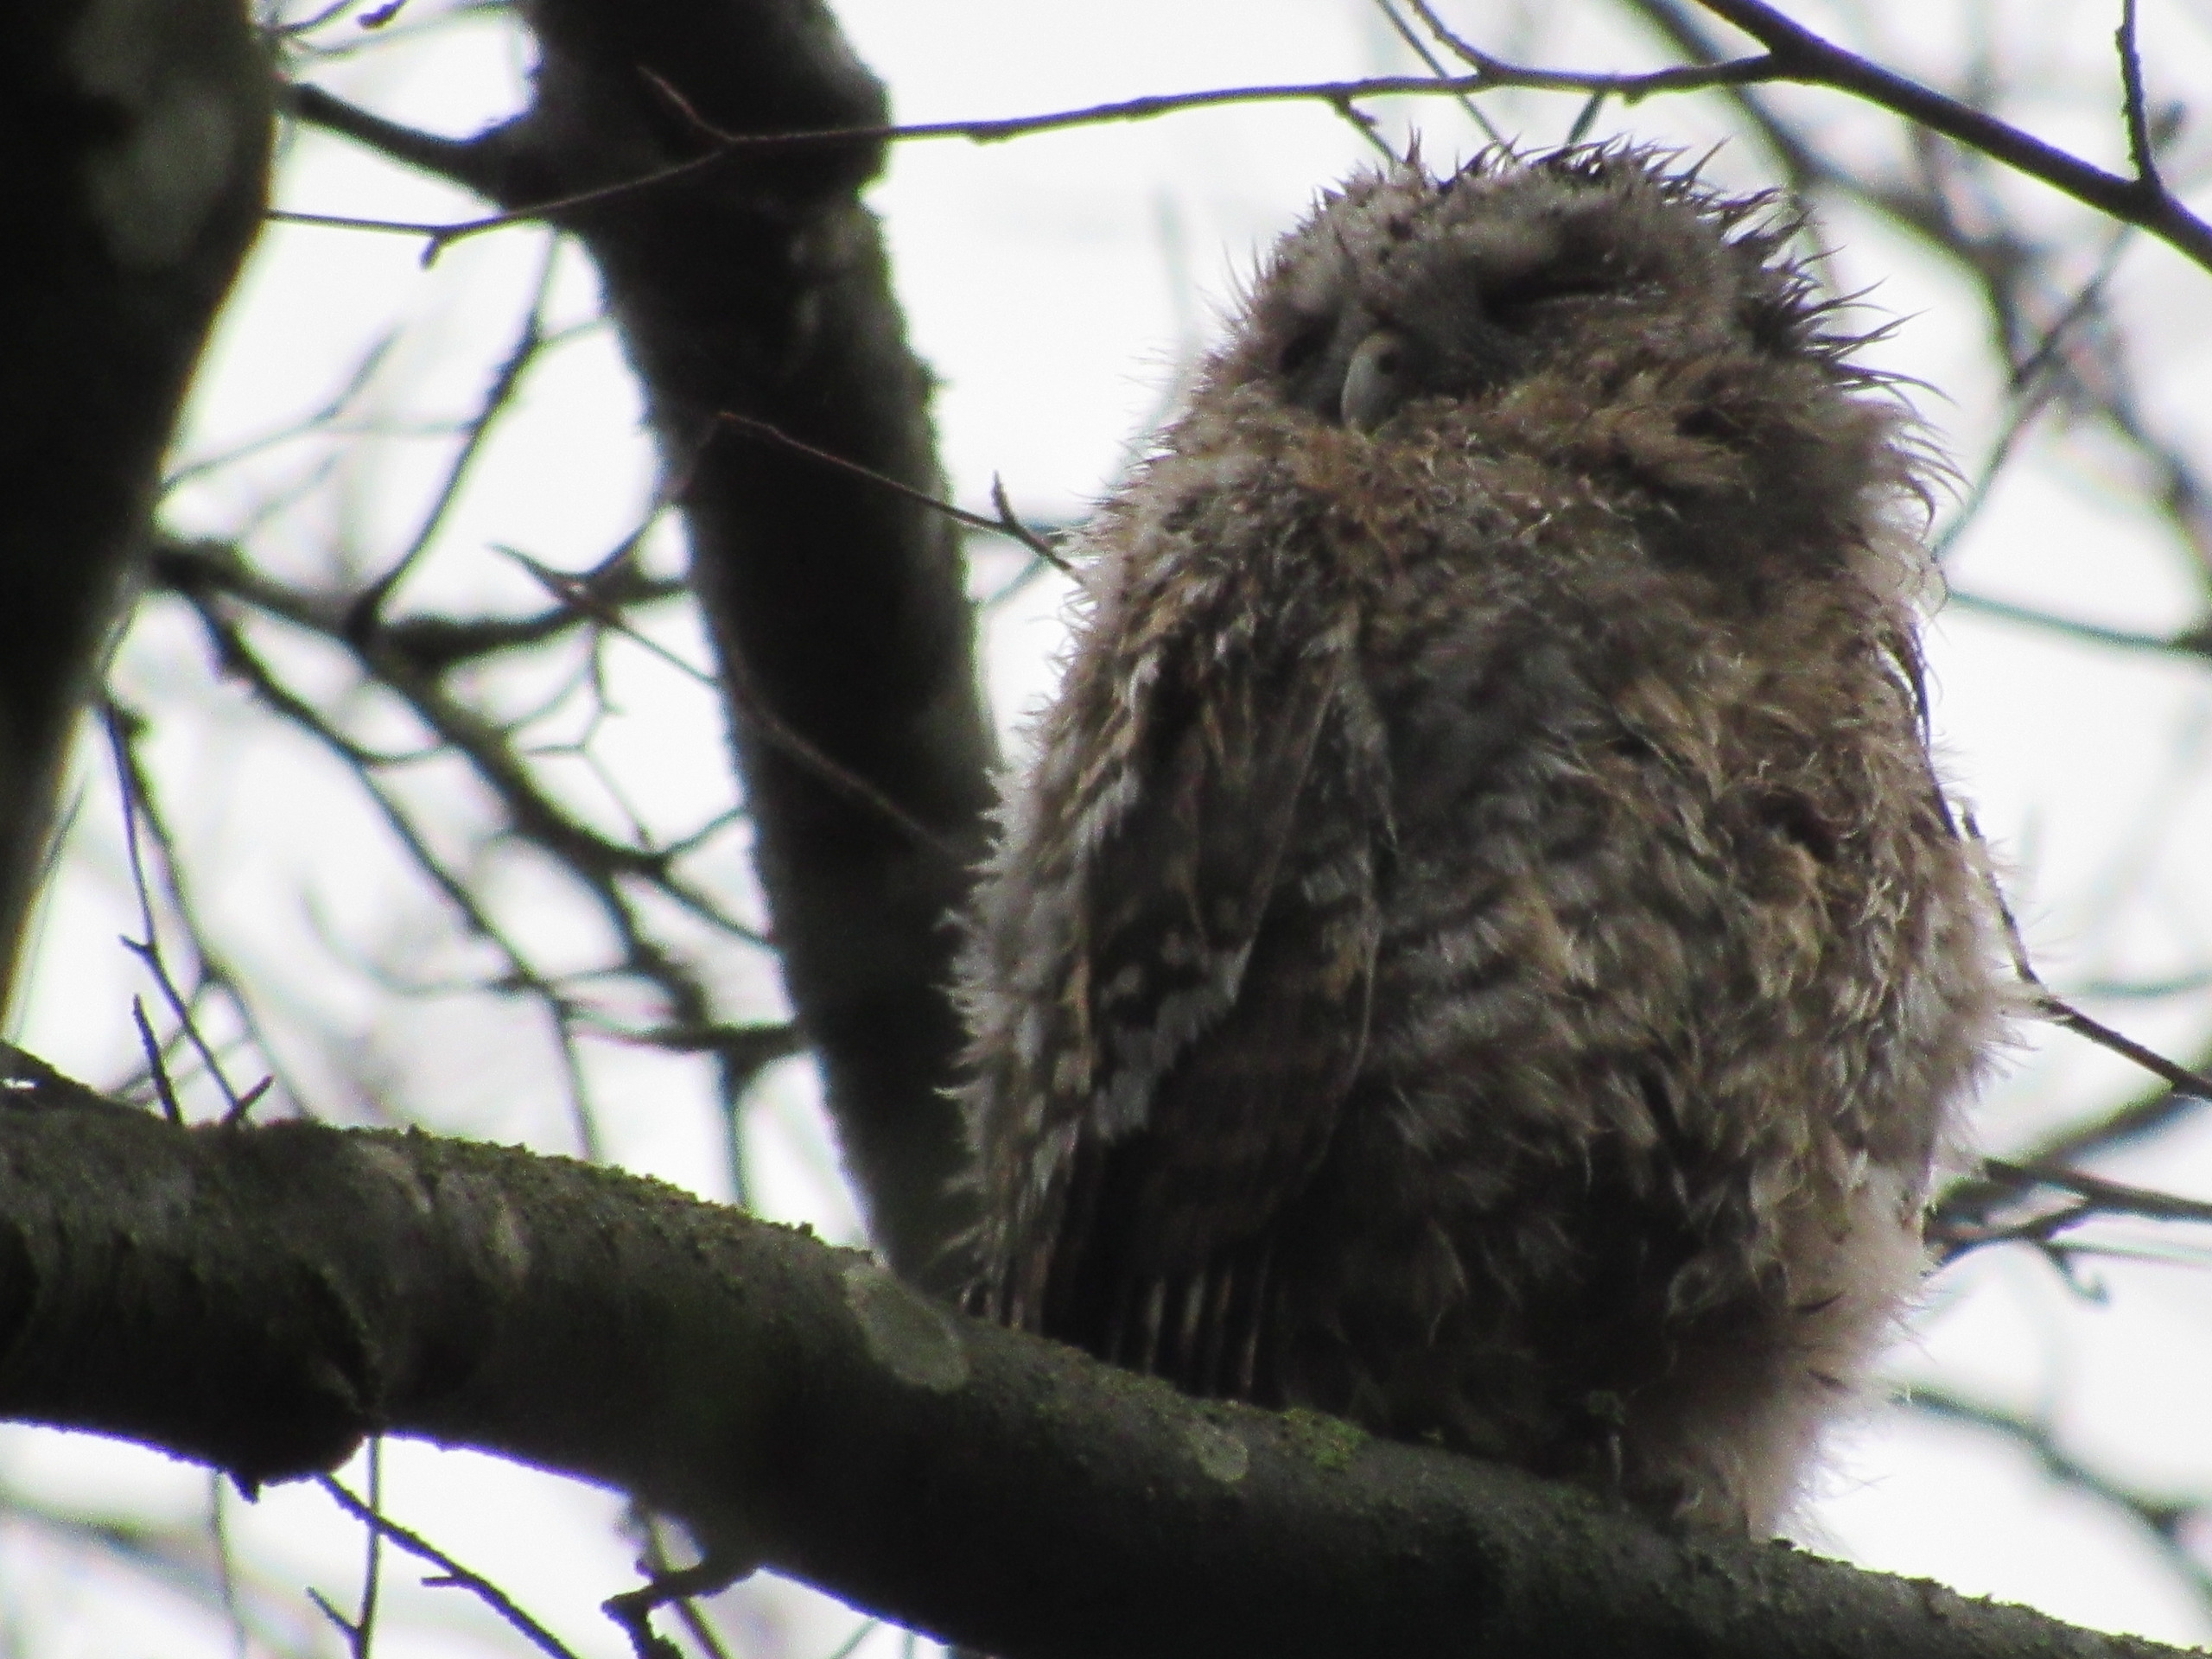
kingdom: Animalia
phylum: Chordata
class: Aves
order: Strigiformes
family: Strigidae
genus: Strix
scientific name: Strix aluco
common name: Natugle
